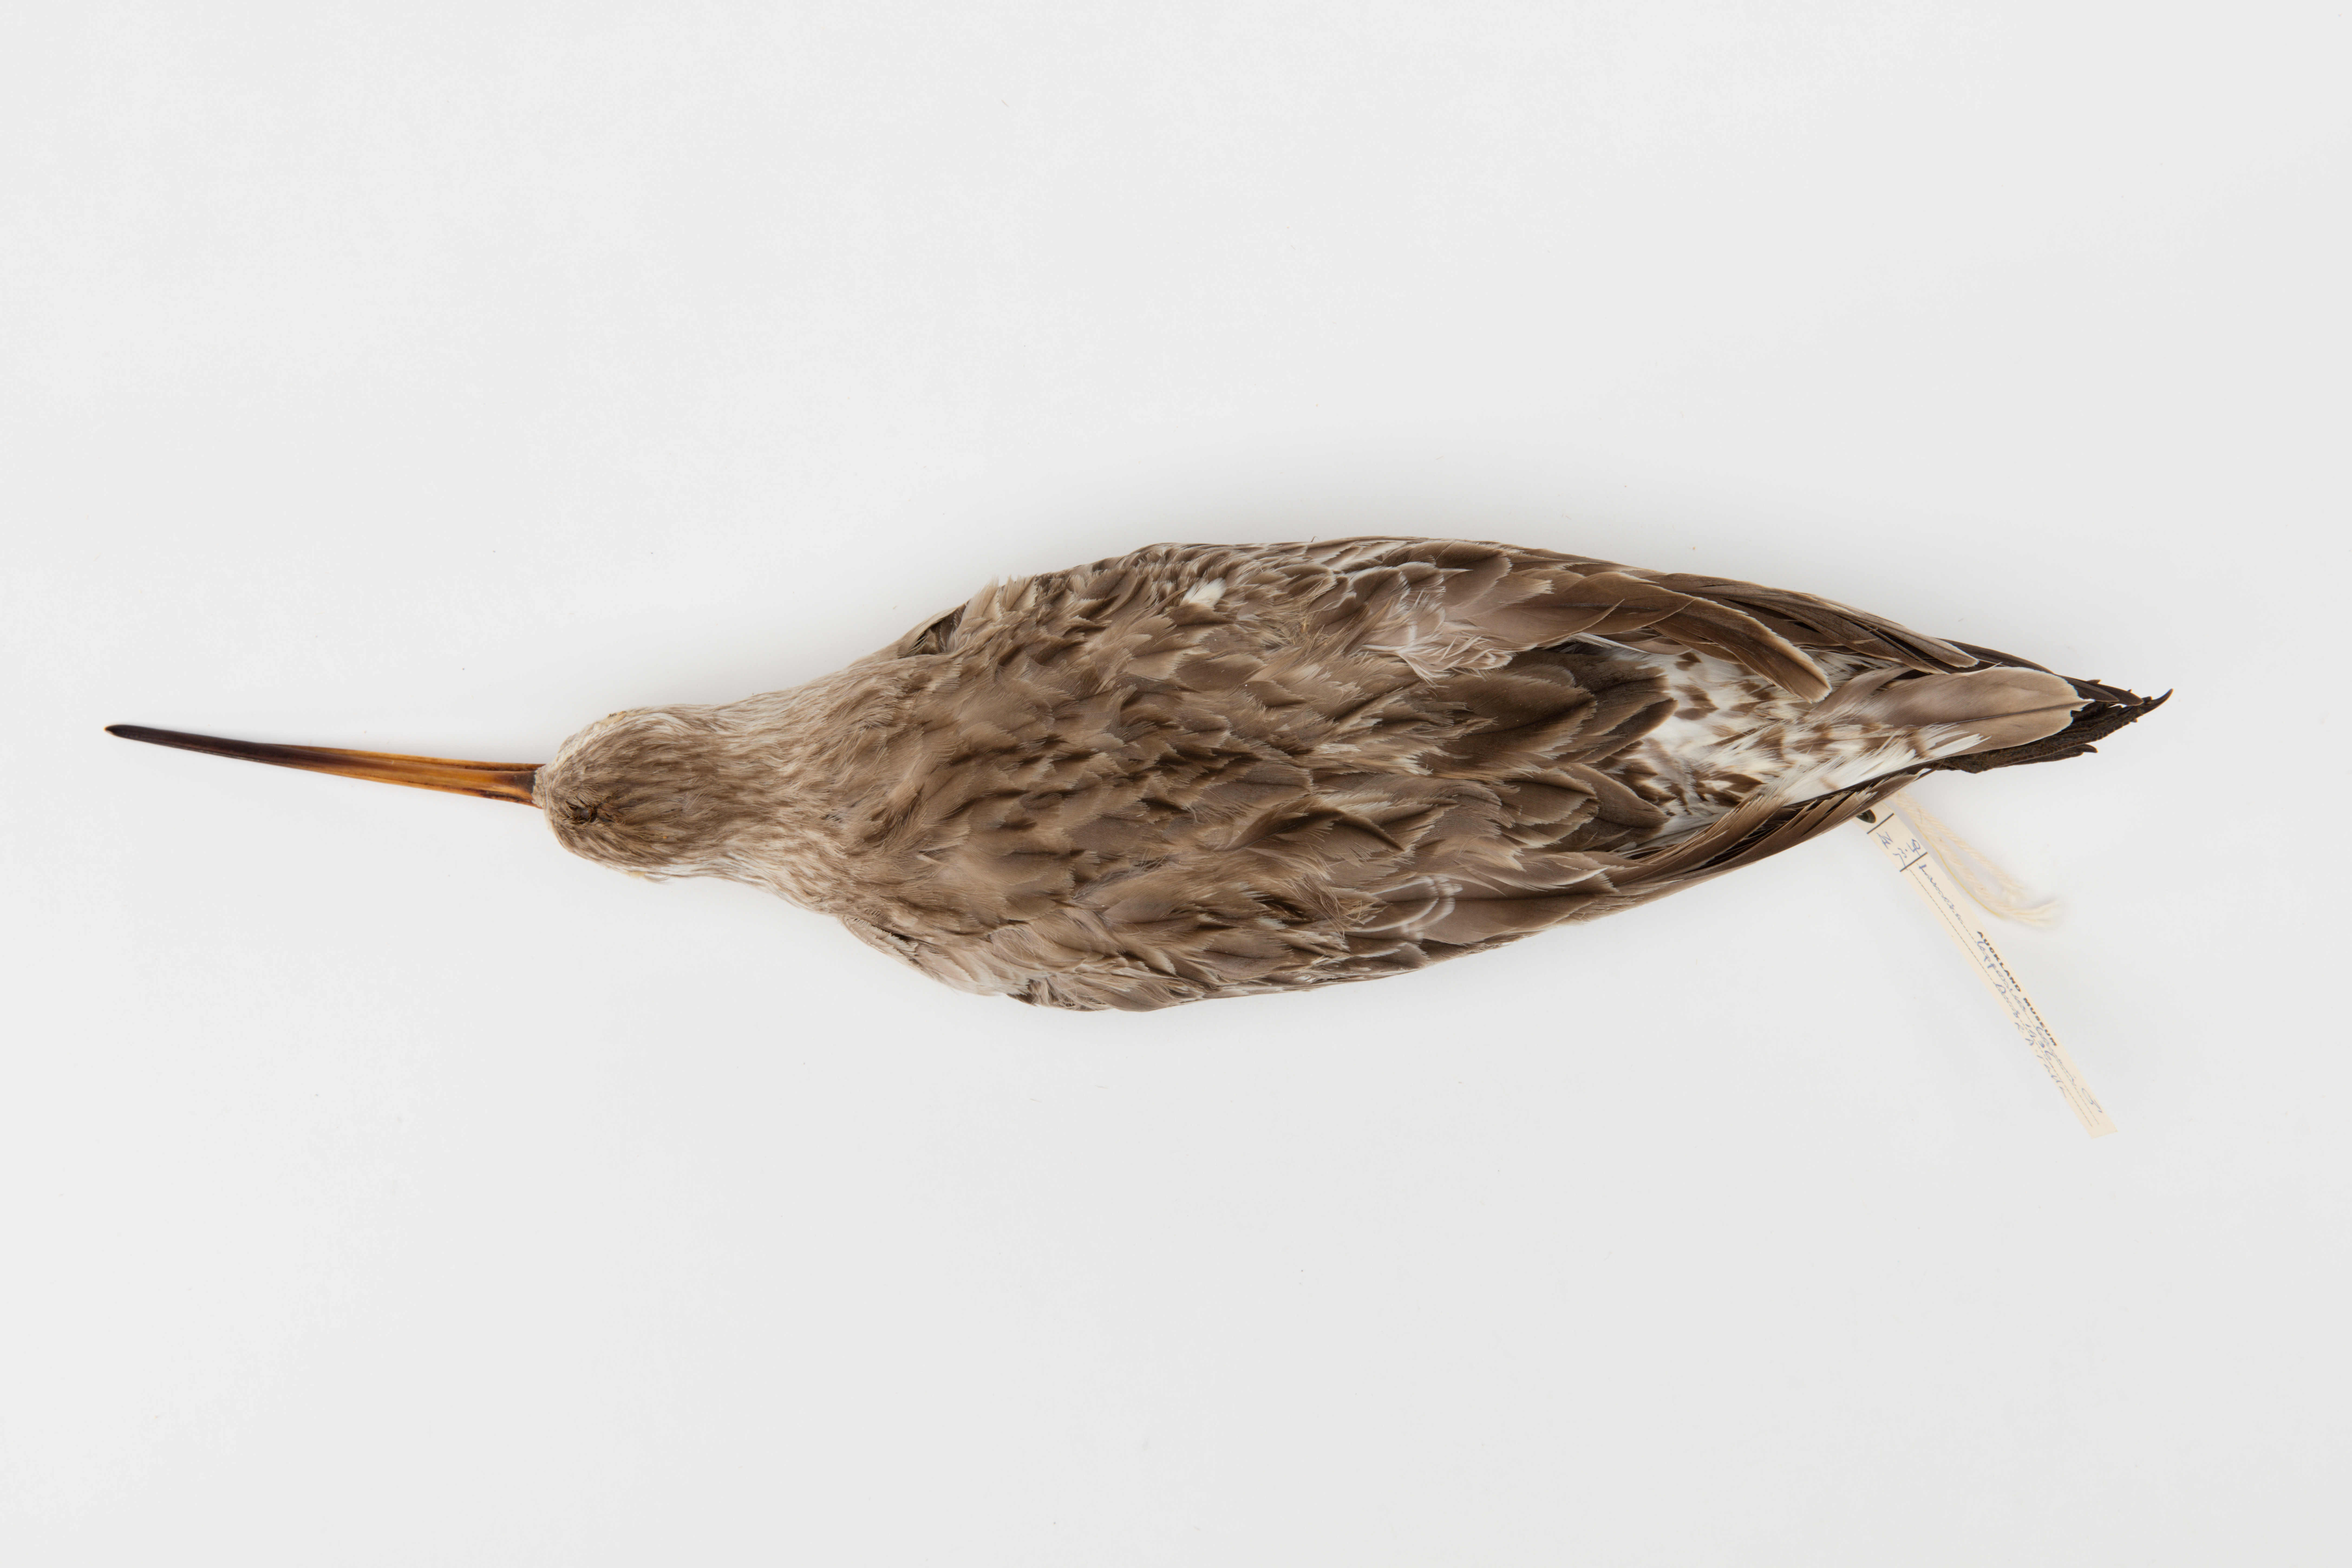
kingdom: Animalia
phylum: Chordata
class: Aves
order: Charadriiformes
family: Scolopacidae
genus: Limosa
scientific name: Limosa lapponica
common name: Bar-tailed godwit
